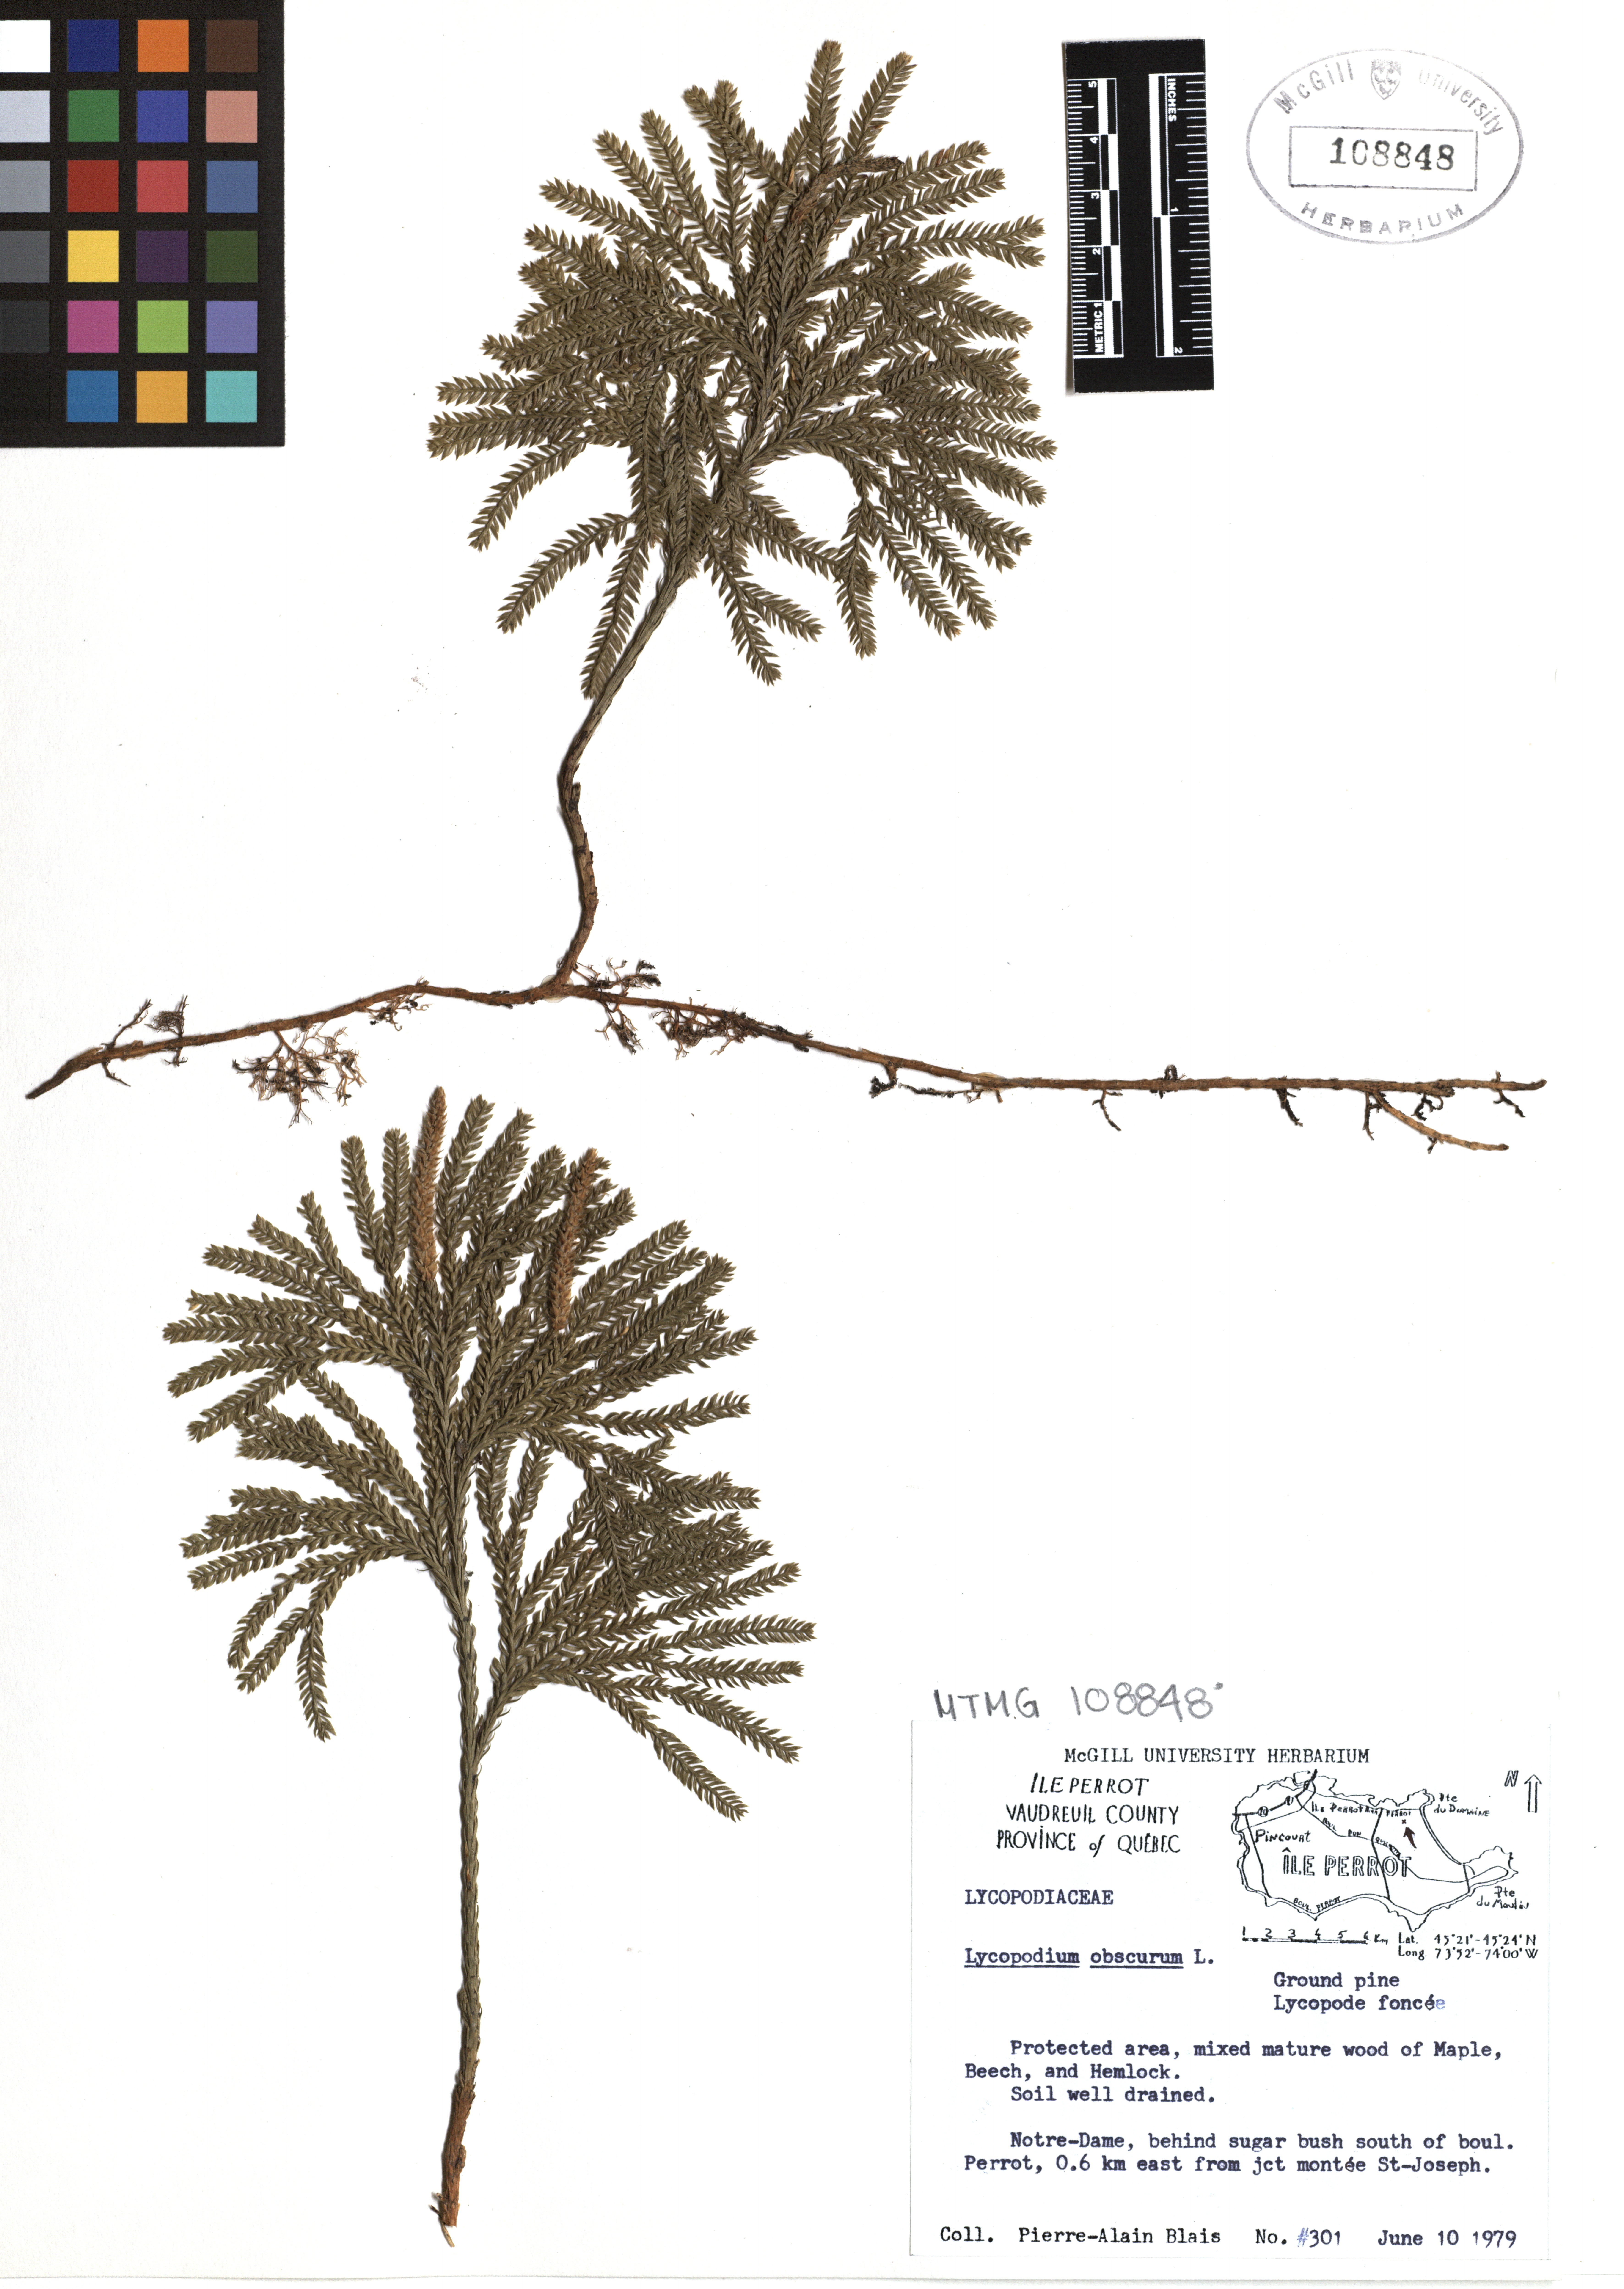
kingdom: Plantae
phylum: Tracheophyta
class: Lycopodiopsida
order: Lycopodiales
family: Lycopodiaceae
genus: Dendrolycopodium
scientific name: Dendrolycopodium obscurum
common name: Common ground-pine
